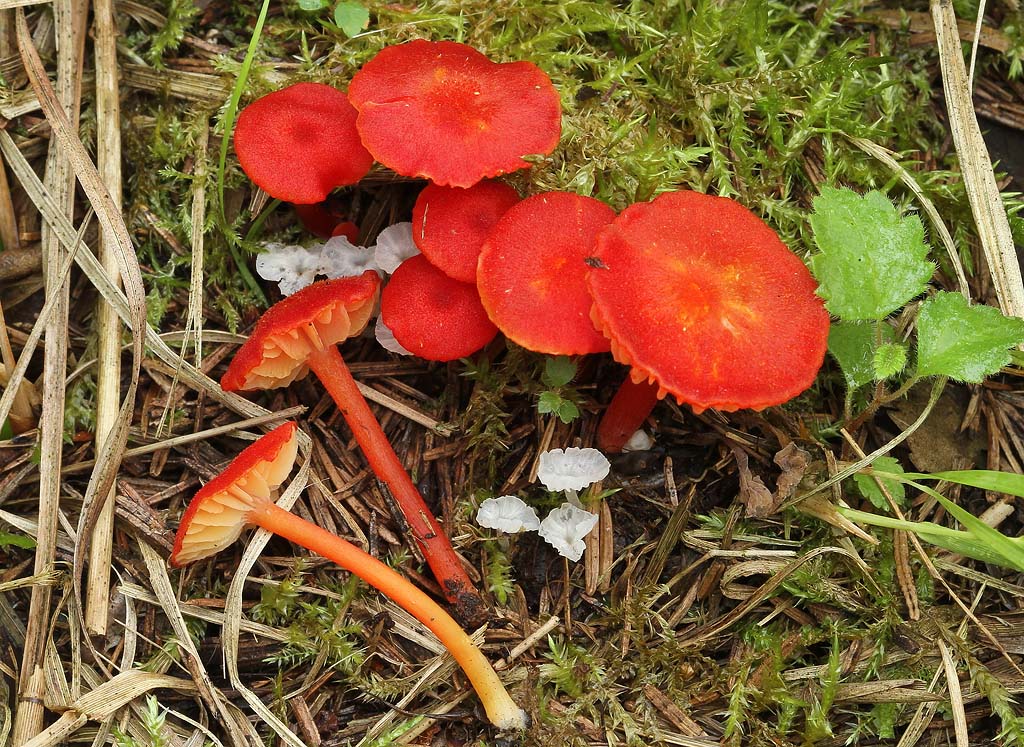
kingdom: Fungi
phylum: Basidiomycota
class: Agaricomycetes
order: Agaricales
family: Hygrophoraceae
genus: Hygrocybe
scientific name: Hygrocybe helobia
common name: hvidløgs-vokshat
